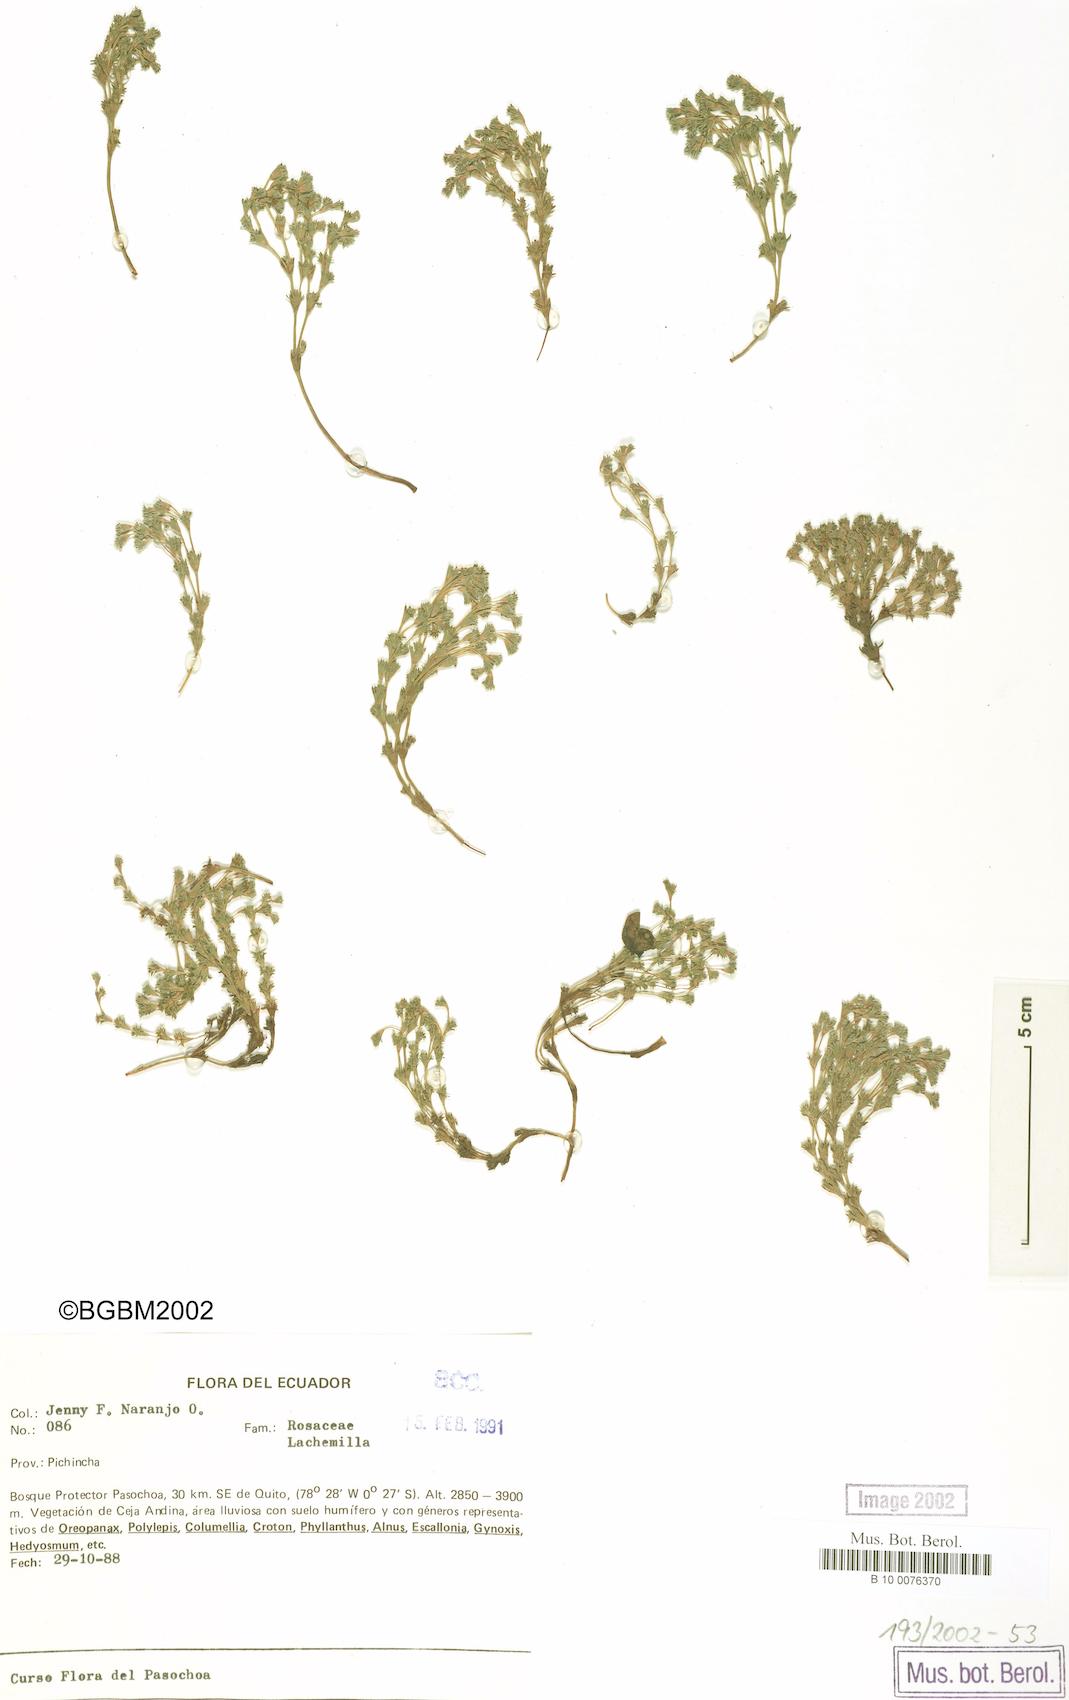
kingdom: Plantae
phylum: Tracheophyta
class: Magnoliopsida
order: Rosales
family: Rosaceae
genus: Lachemilla
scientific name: Lachemilla
